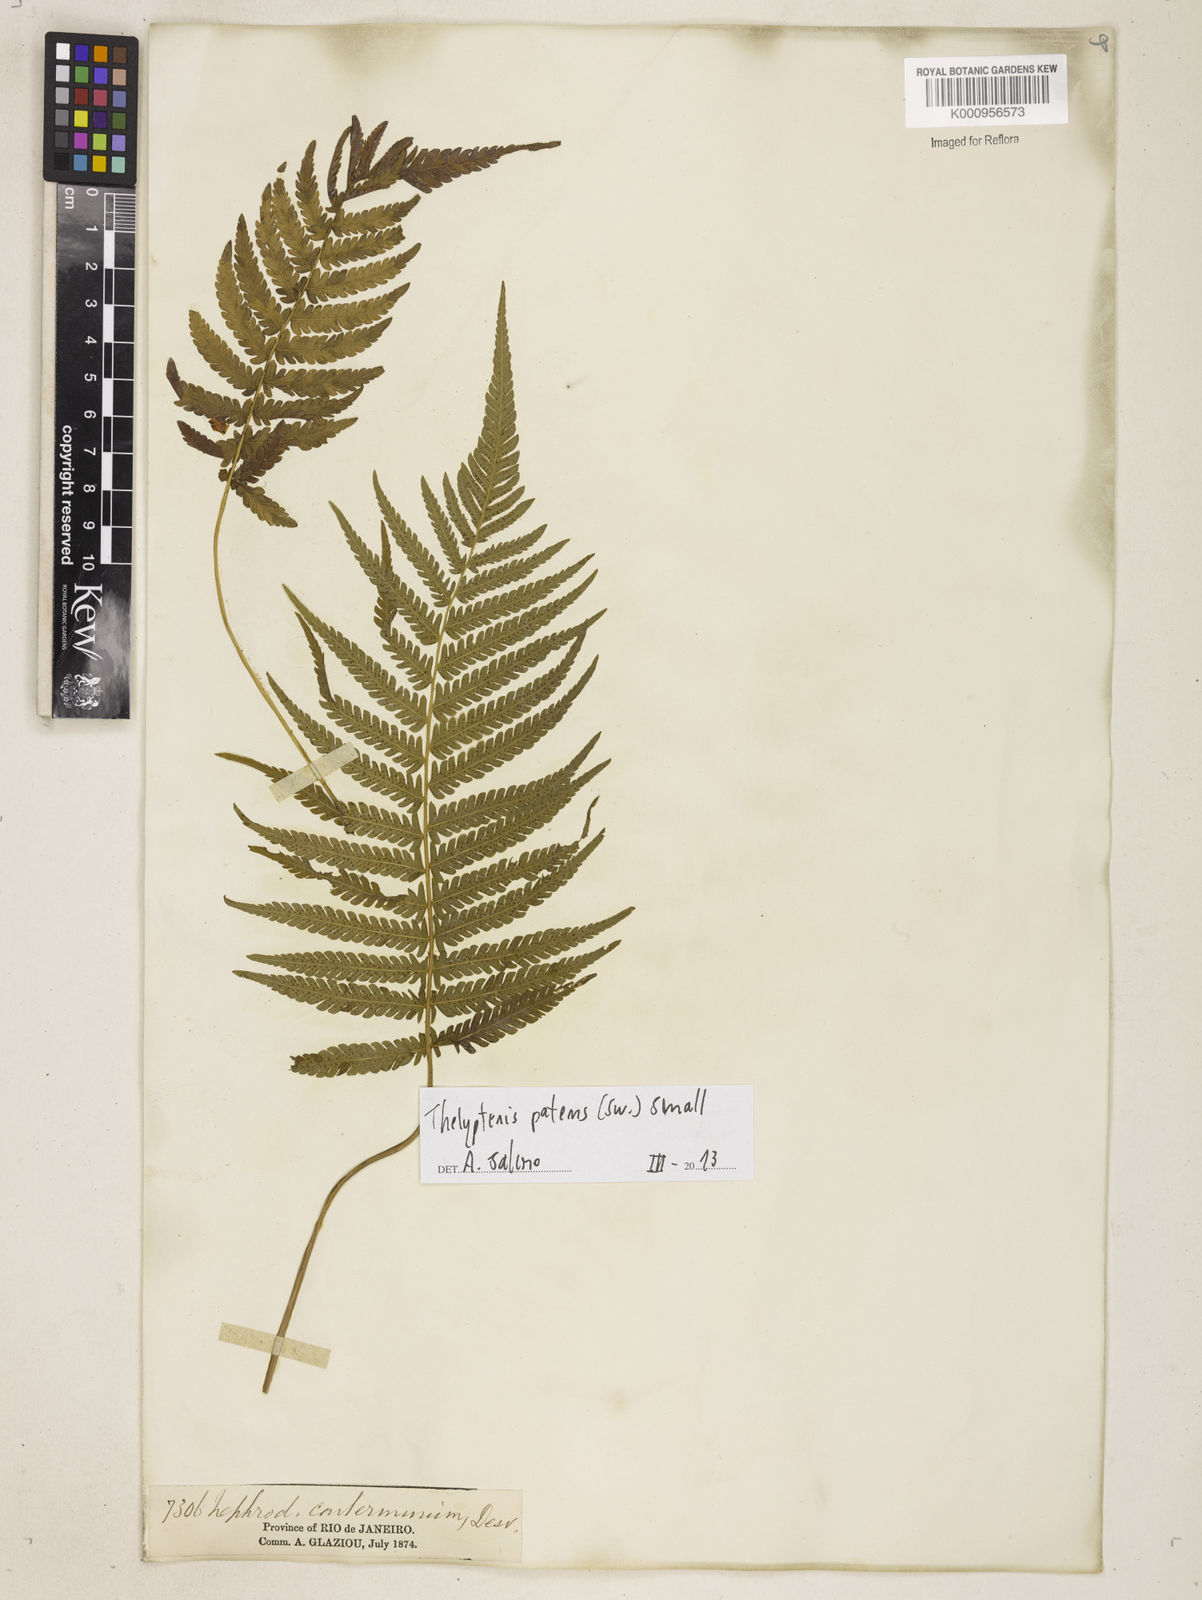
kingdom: Plantae
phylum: Tracheophyta
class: Polypodiopsida
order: Polypodiales
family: Thelypteridaceae
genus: Pelazoneuron
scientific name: Pelazoneuron patens
